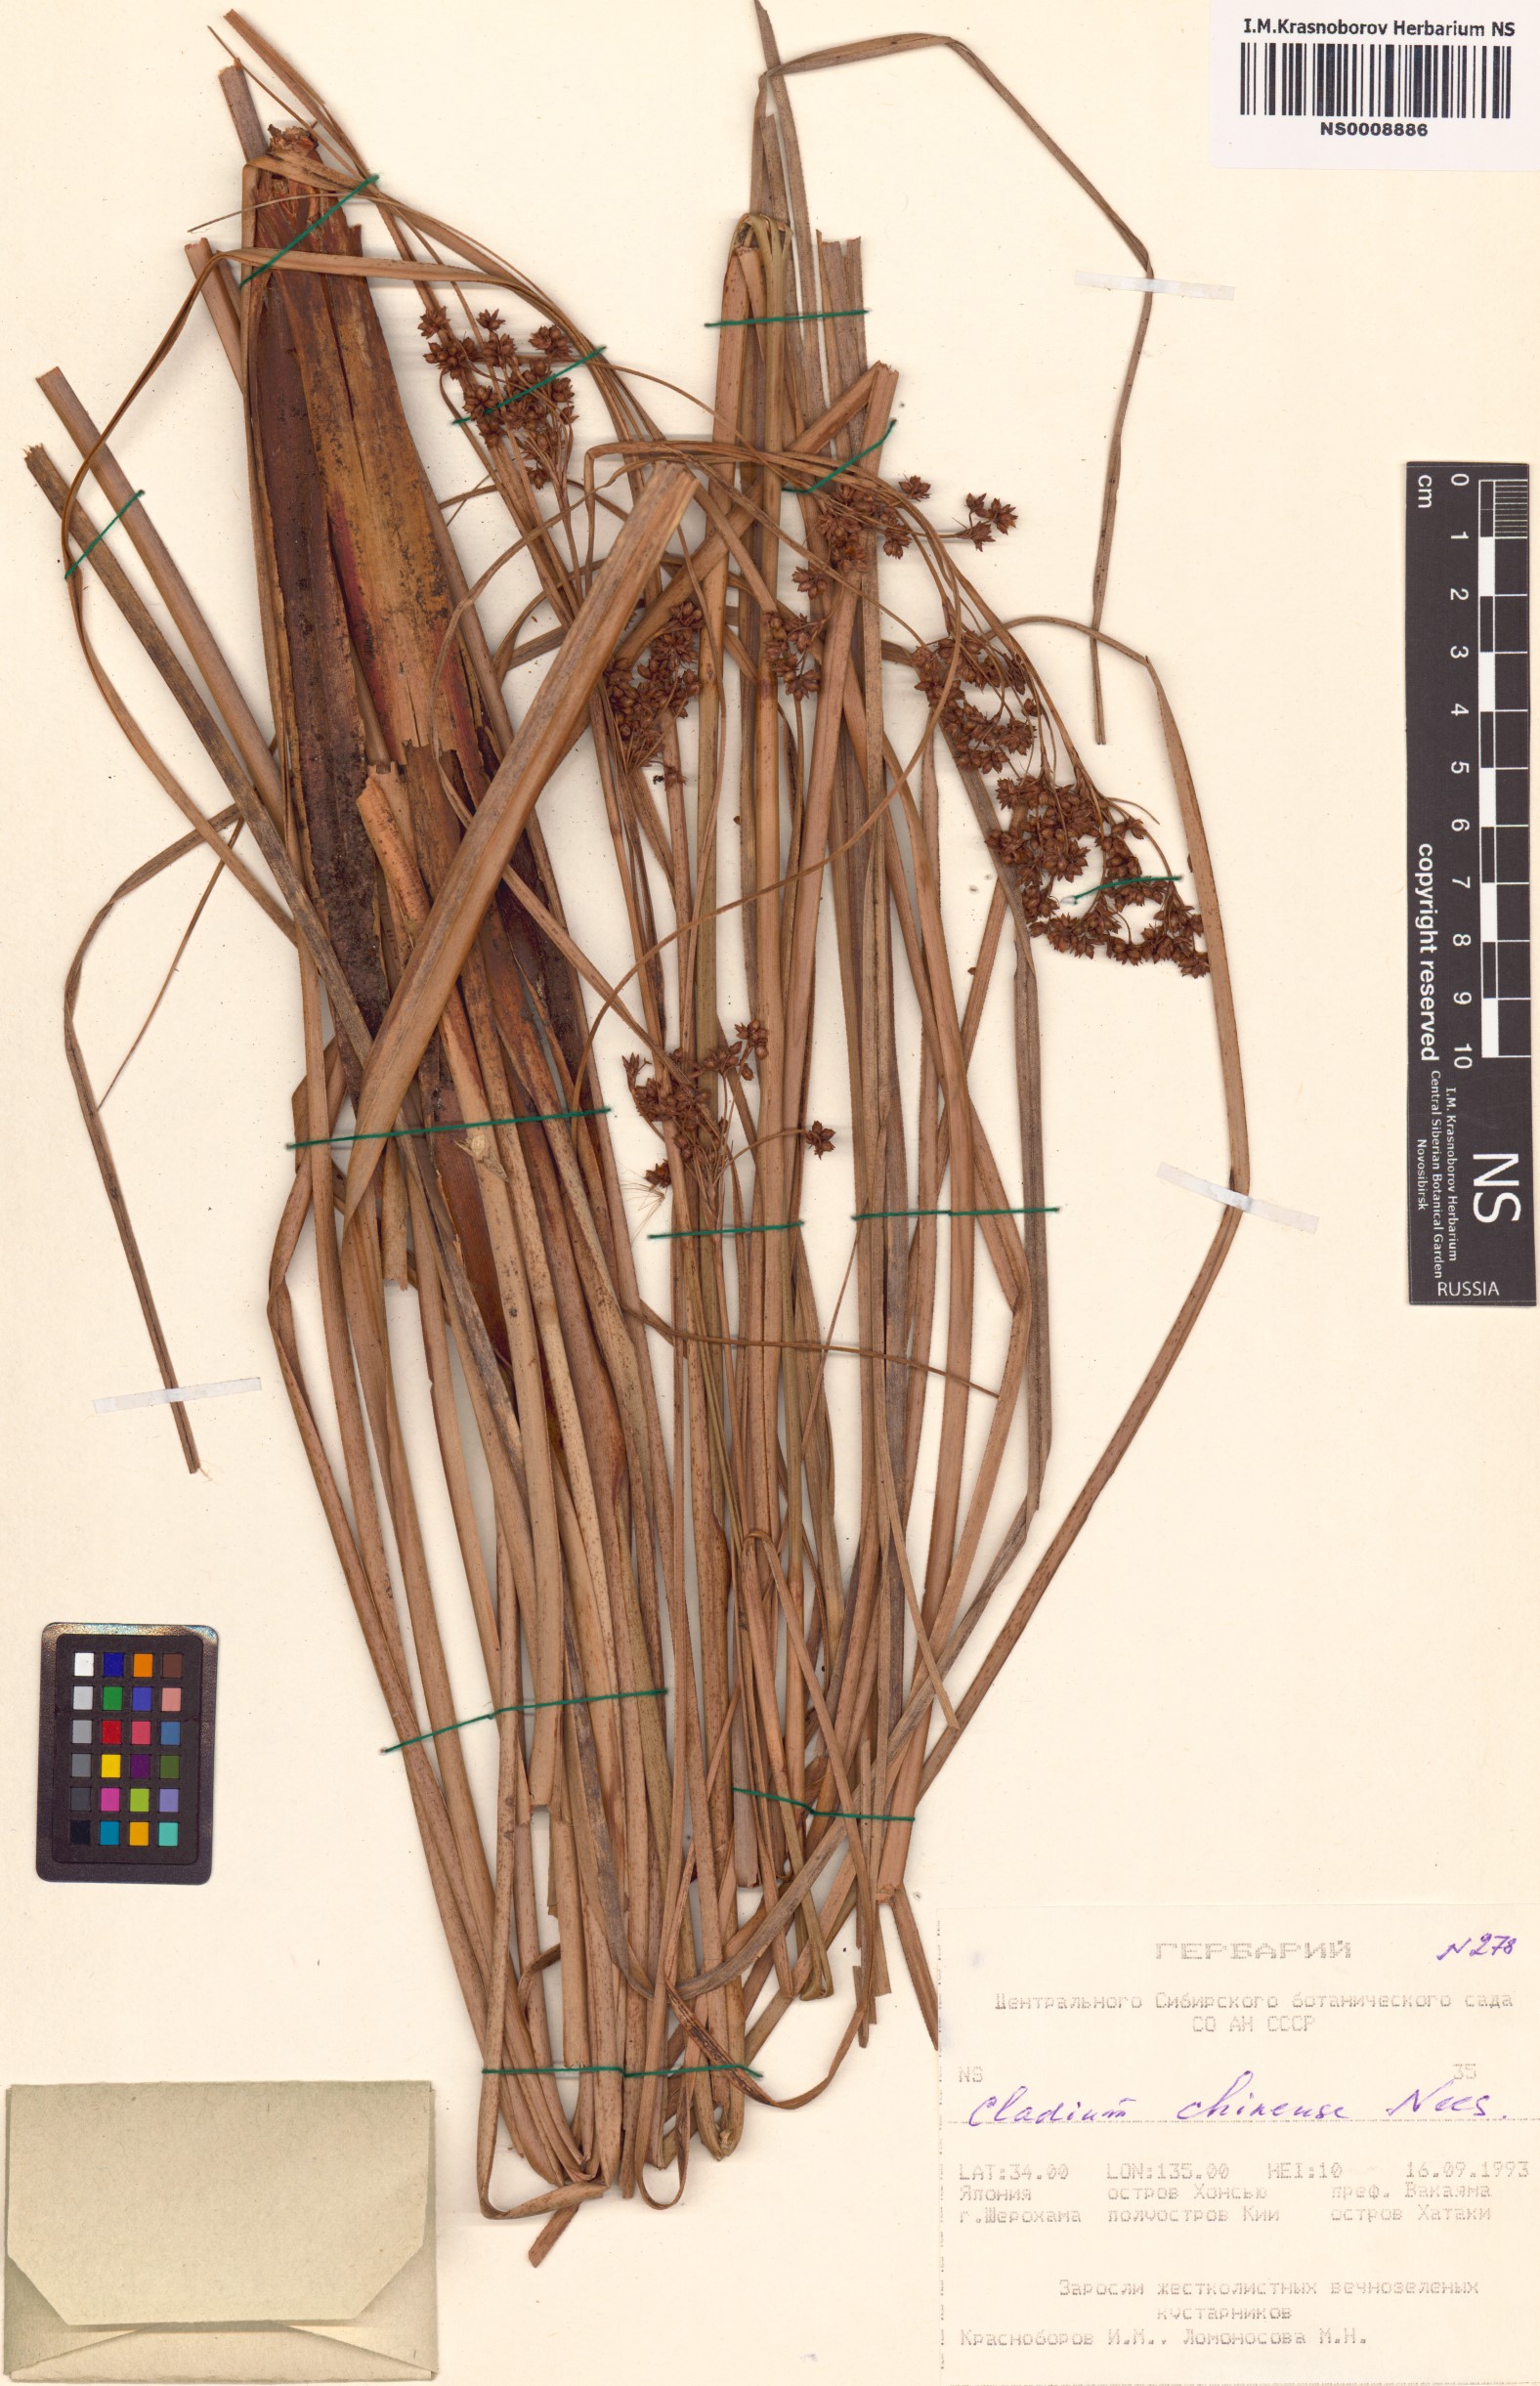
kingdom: Plantae
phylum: Tracheophyta
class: Liliopsida
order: Poales
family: Cyperaceae
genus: Cladium
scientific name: Cladium mariscus
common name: Great fen-sedge
